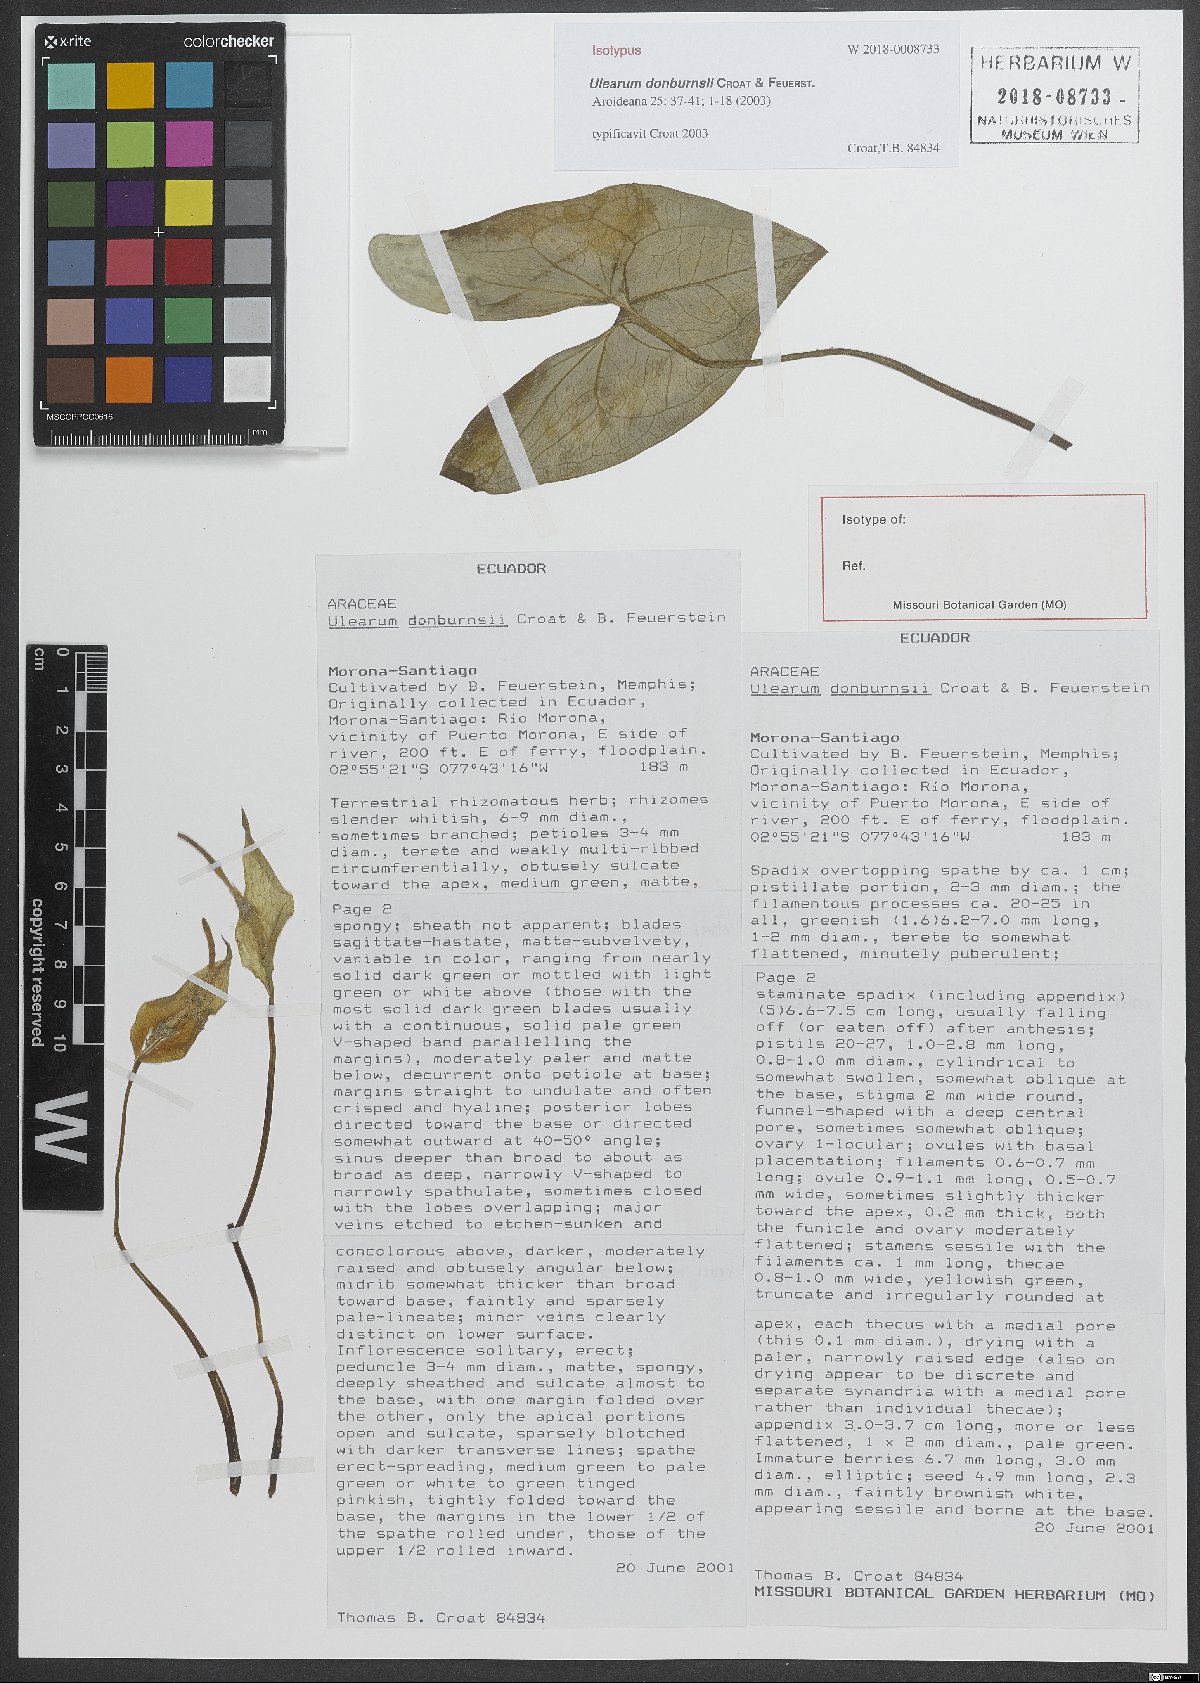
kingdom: Plantae
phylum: Tracheophyta
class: Liliopsida
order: Alismatales
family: Araceae
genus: Ulearum
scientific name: Ulearum donburnsii
